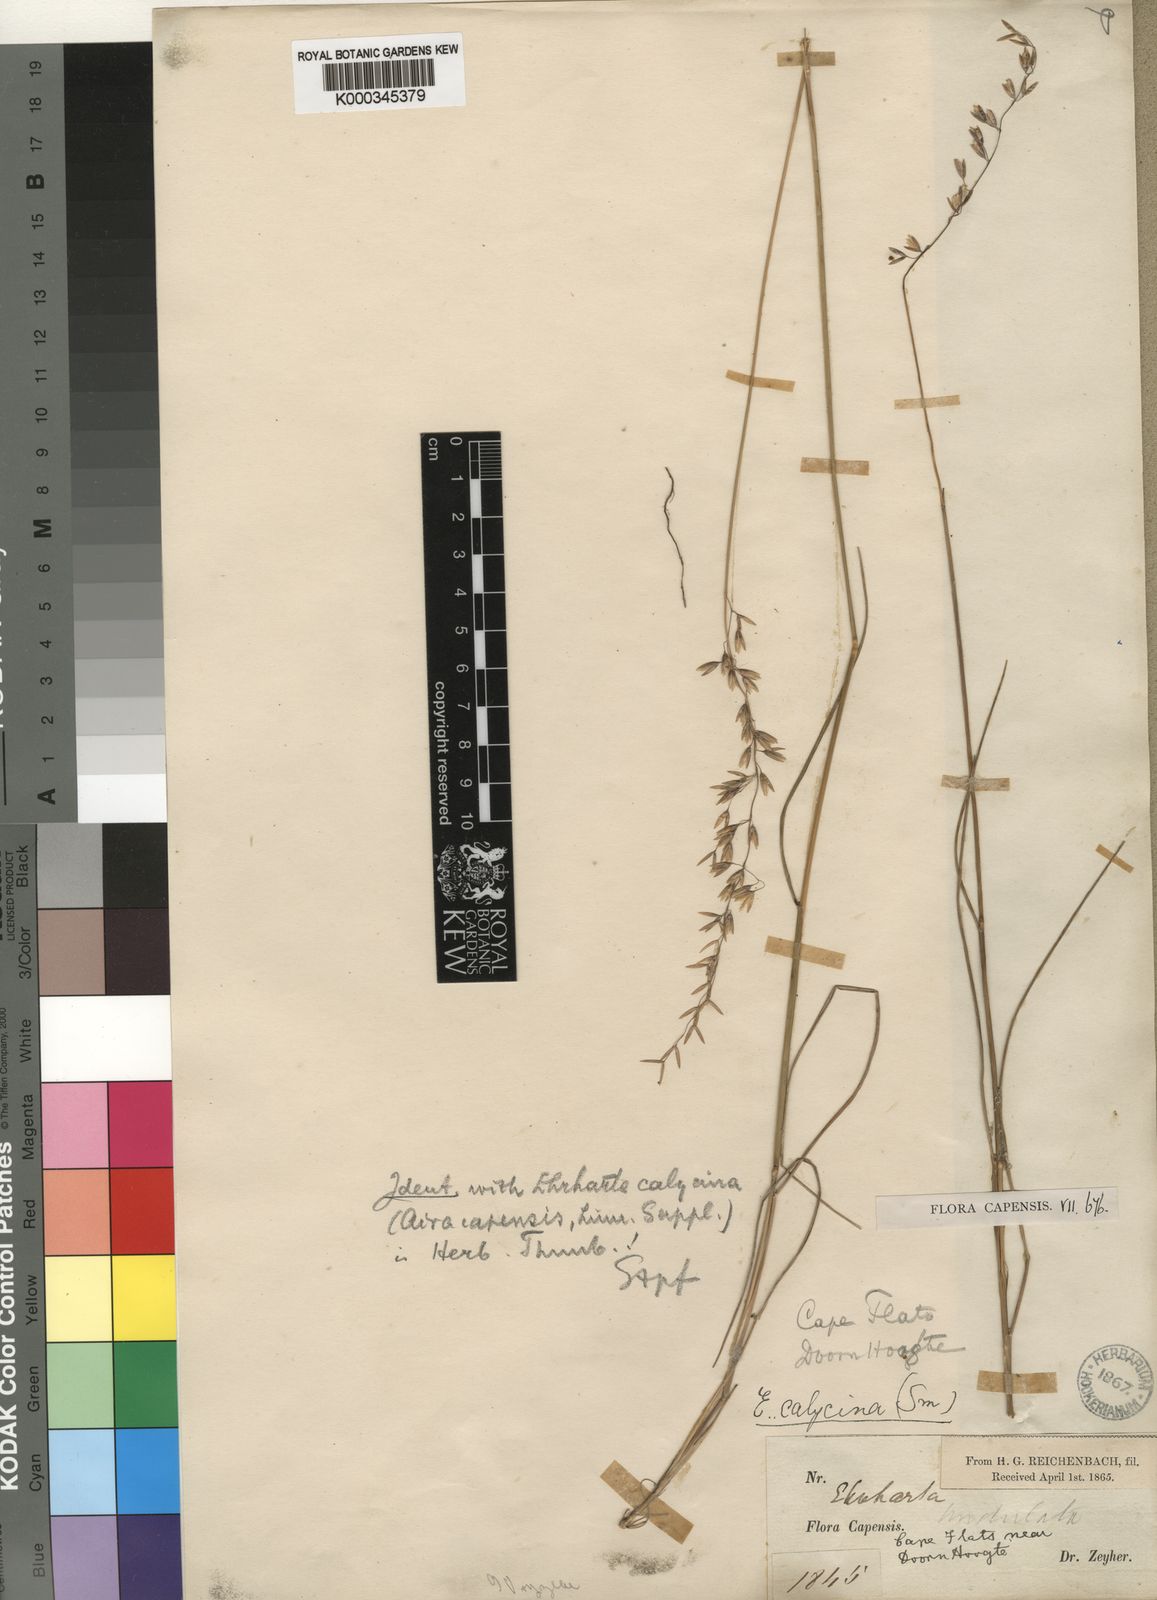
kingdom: Plantae
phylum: Tracheophyta
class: Liliopsida
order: Poales
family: Poaceae
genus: Ehrharta
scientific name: Ehrharta calycina
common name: Perennial veldtgrass
